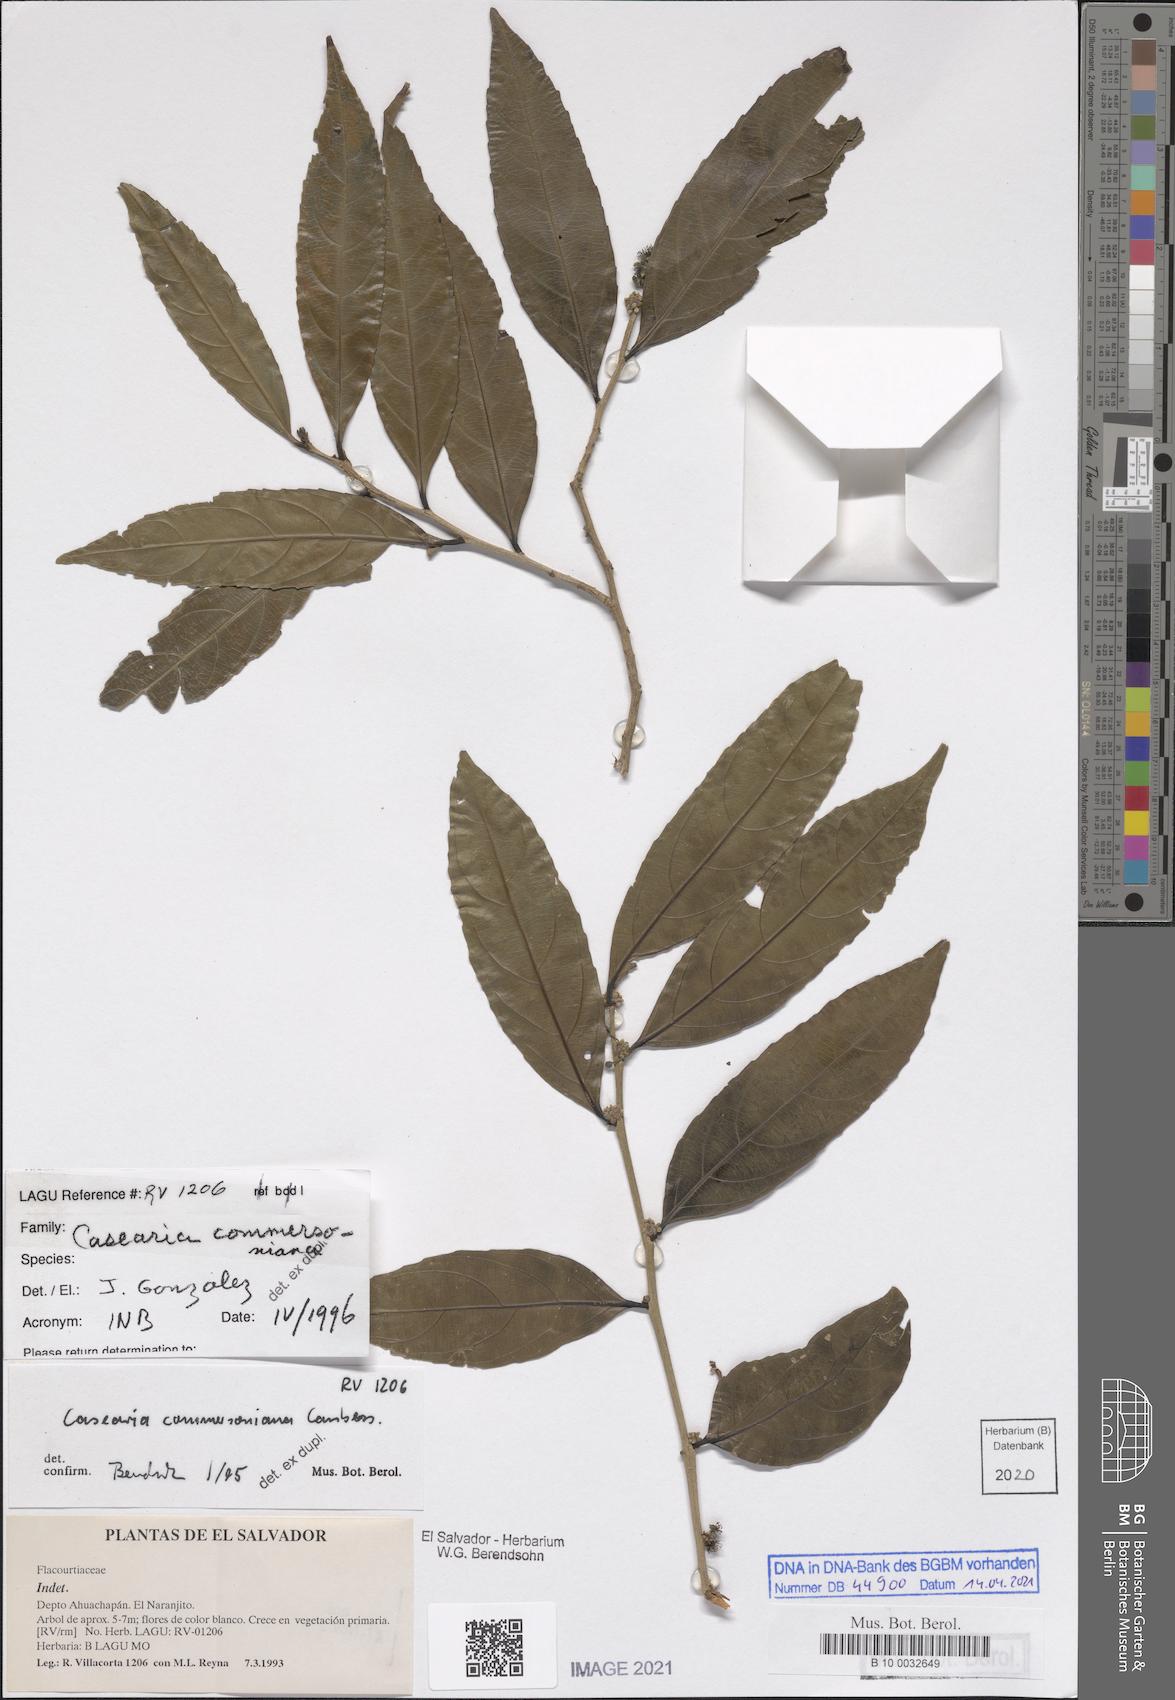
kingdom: Plantae
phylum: Tracheophyta
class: Magnoliopsida
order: Malpighiales
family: Salicaceae
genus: Piparea
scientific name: Piparea dentata
